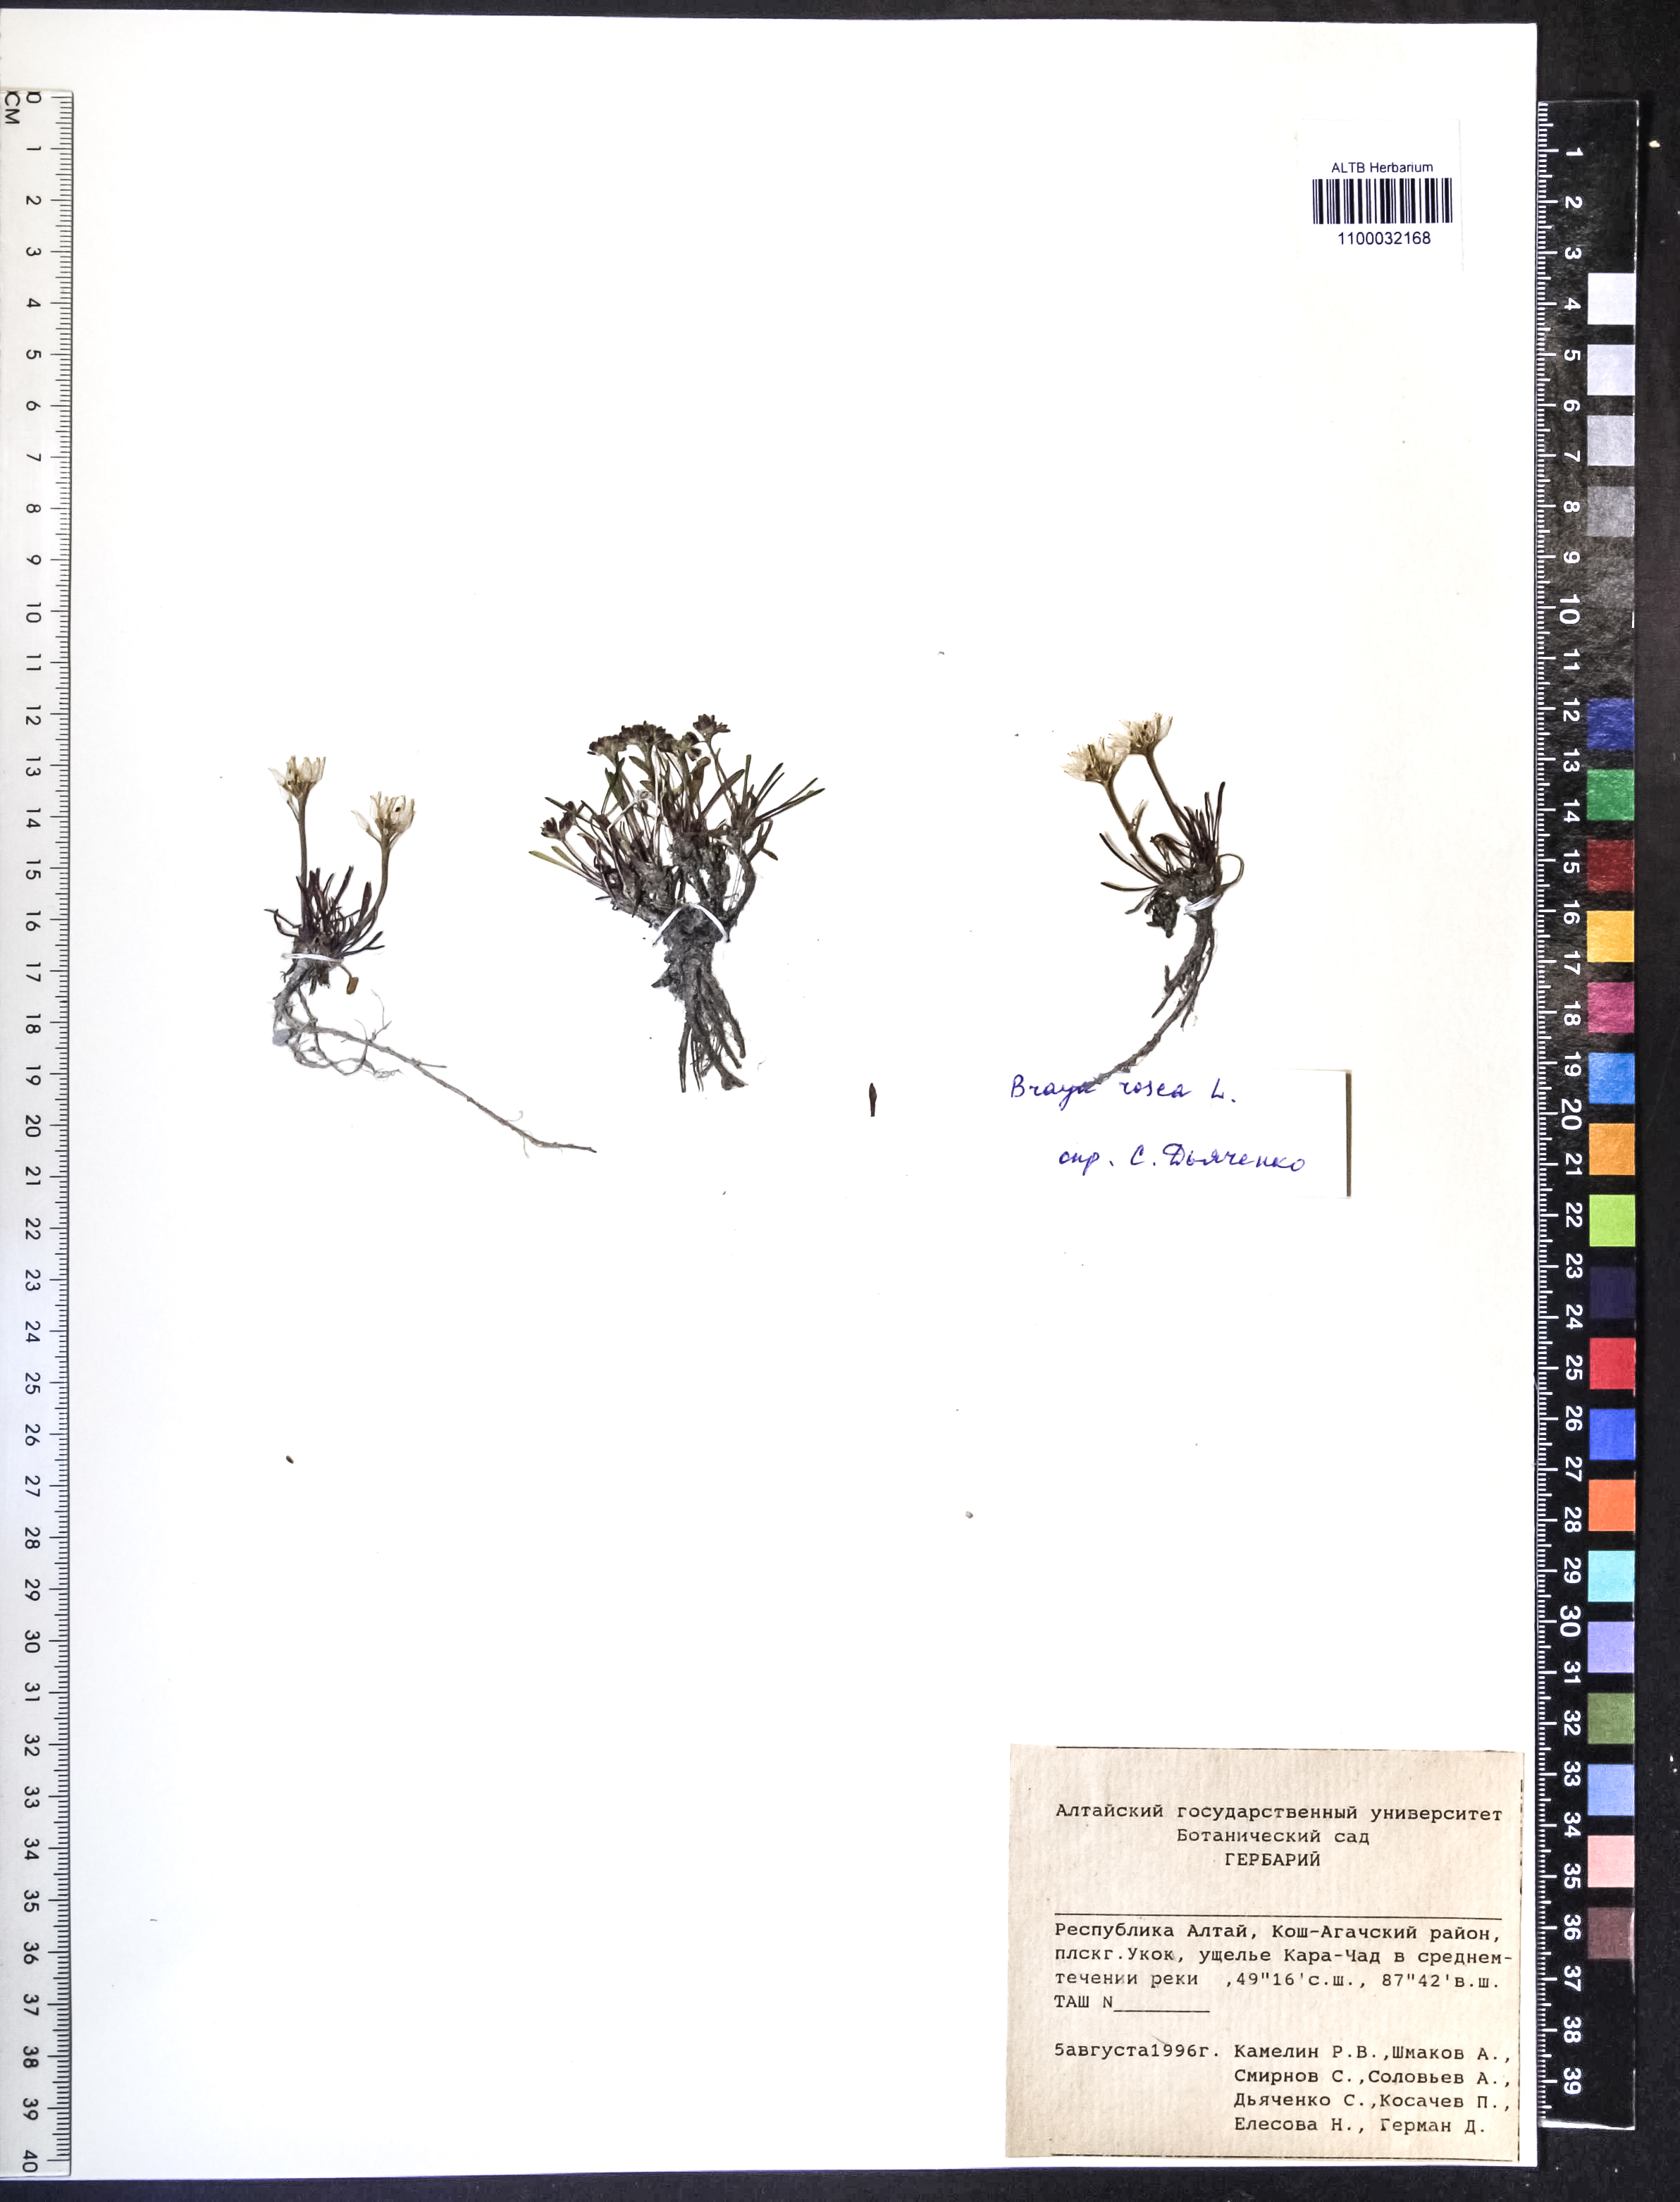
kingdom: Plantae
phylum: Tracheophyta
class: Magnoliopsida
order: Brassicales
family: Brassicaceae
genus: Braya
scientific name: Braya rosea
